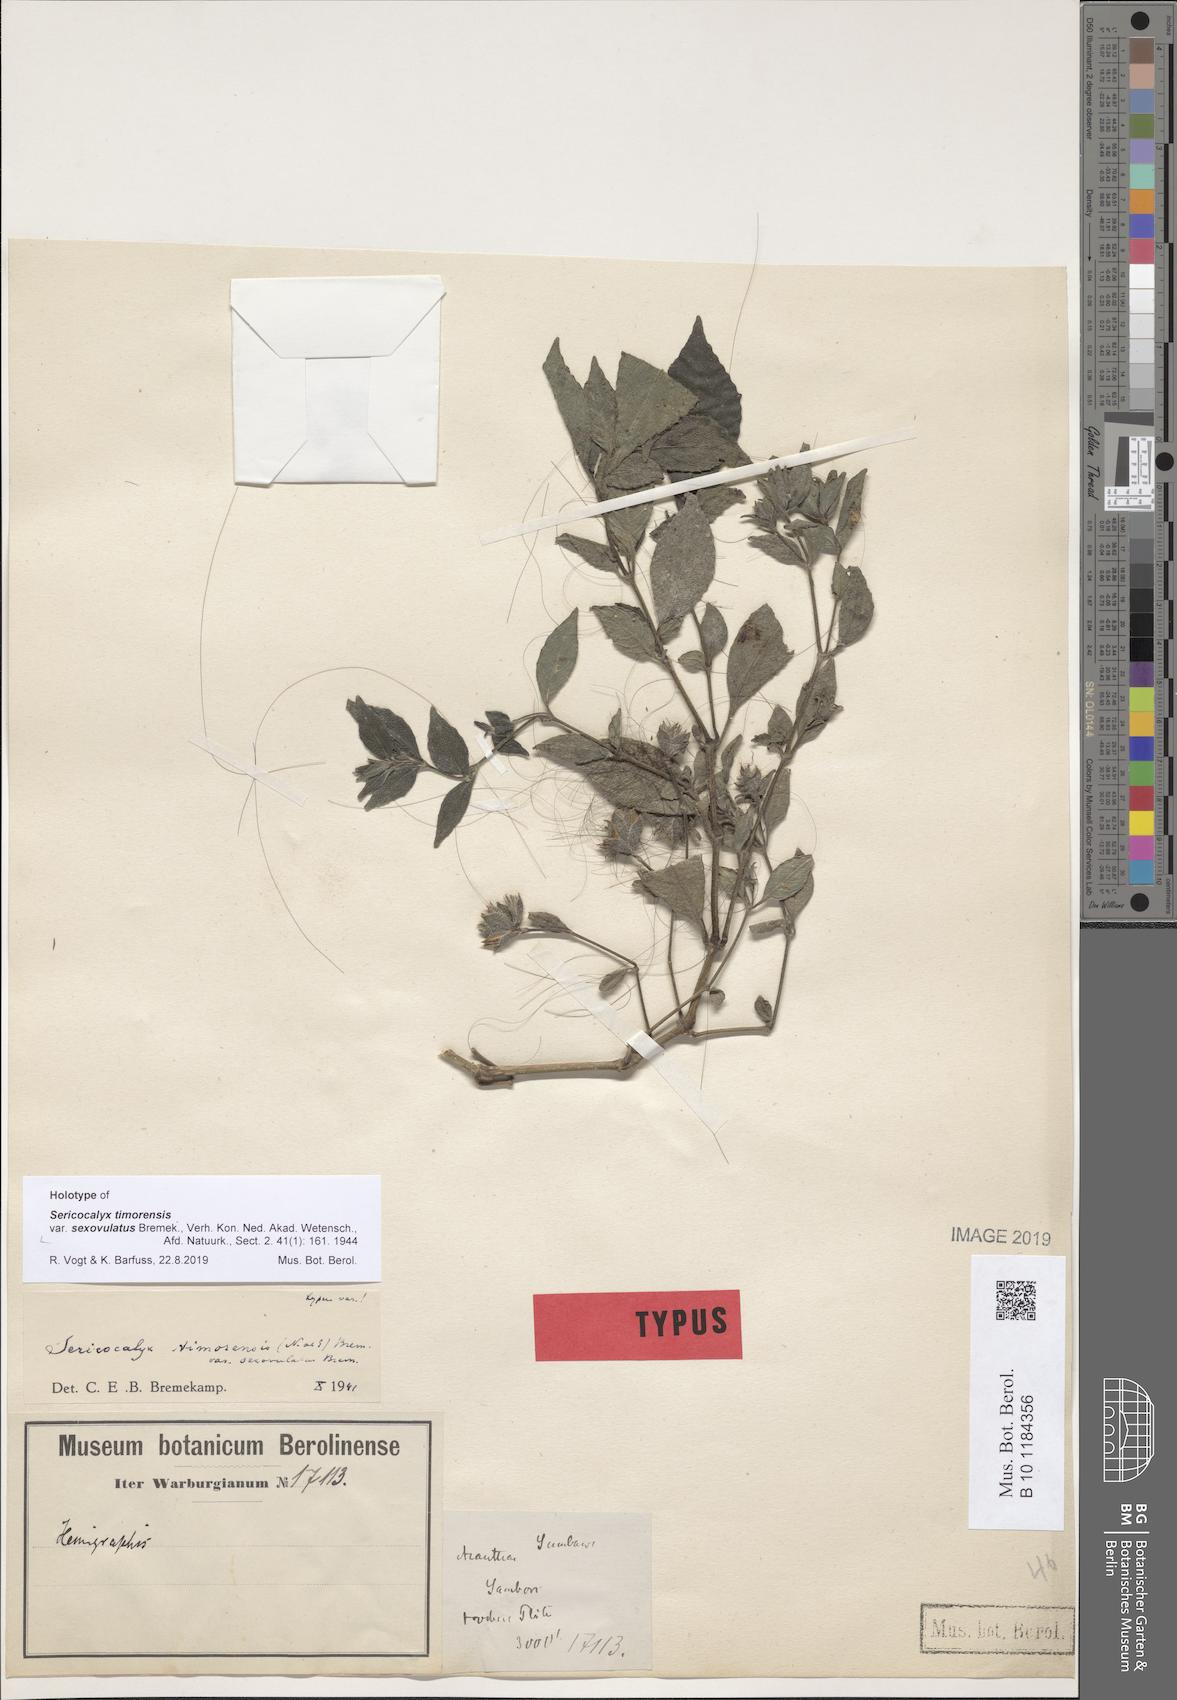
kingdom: Plantae
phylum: Tracheophyta
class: Magnoliopsida
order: Lamiales
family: Acanthaceae
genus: Strobilanthes
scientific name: Strobilanthes timorensis
